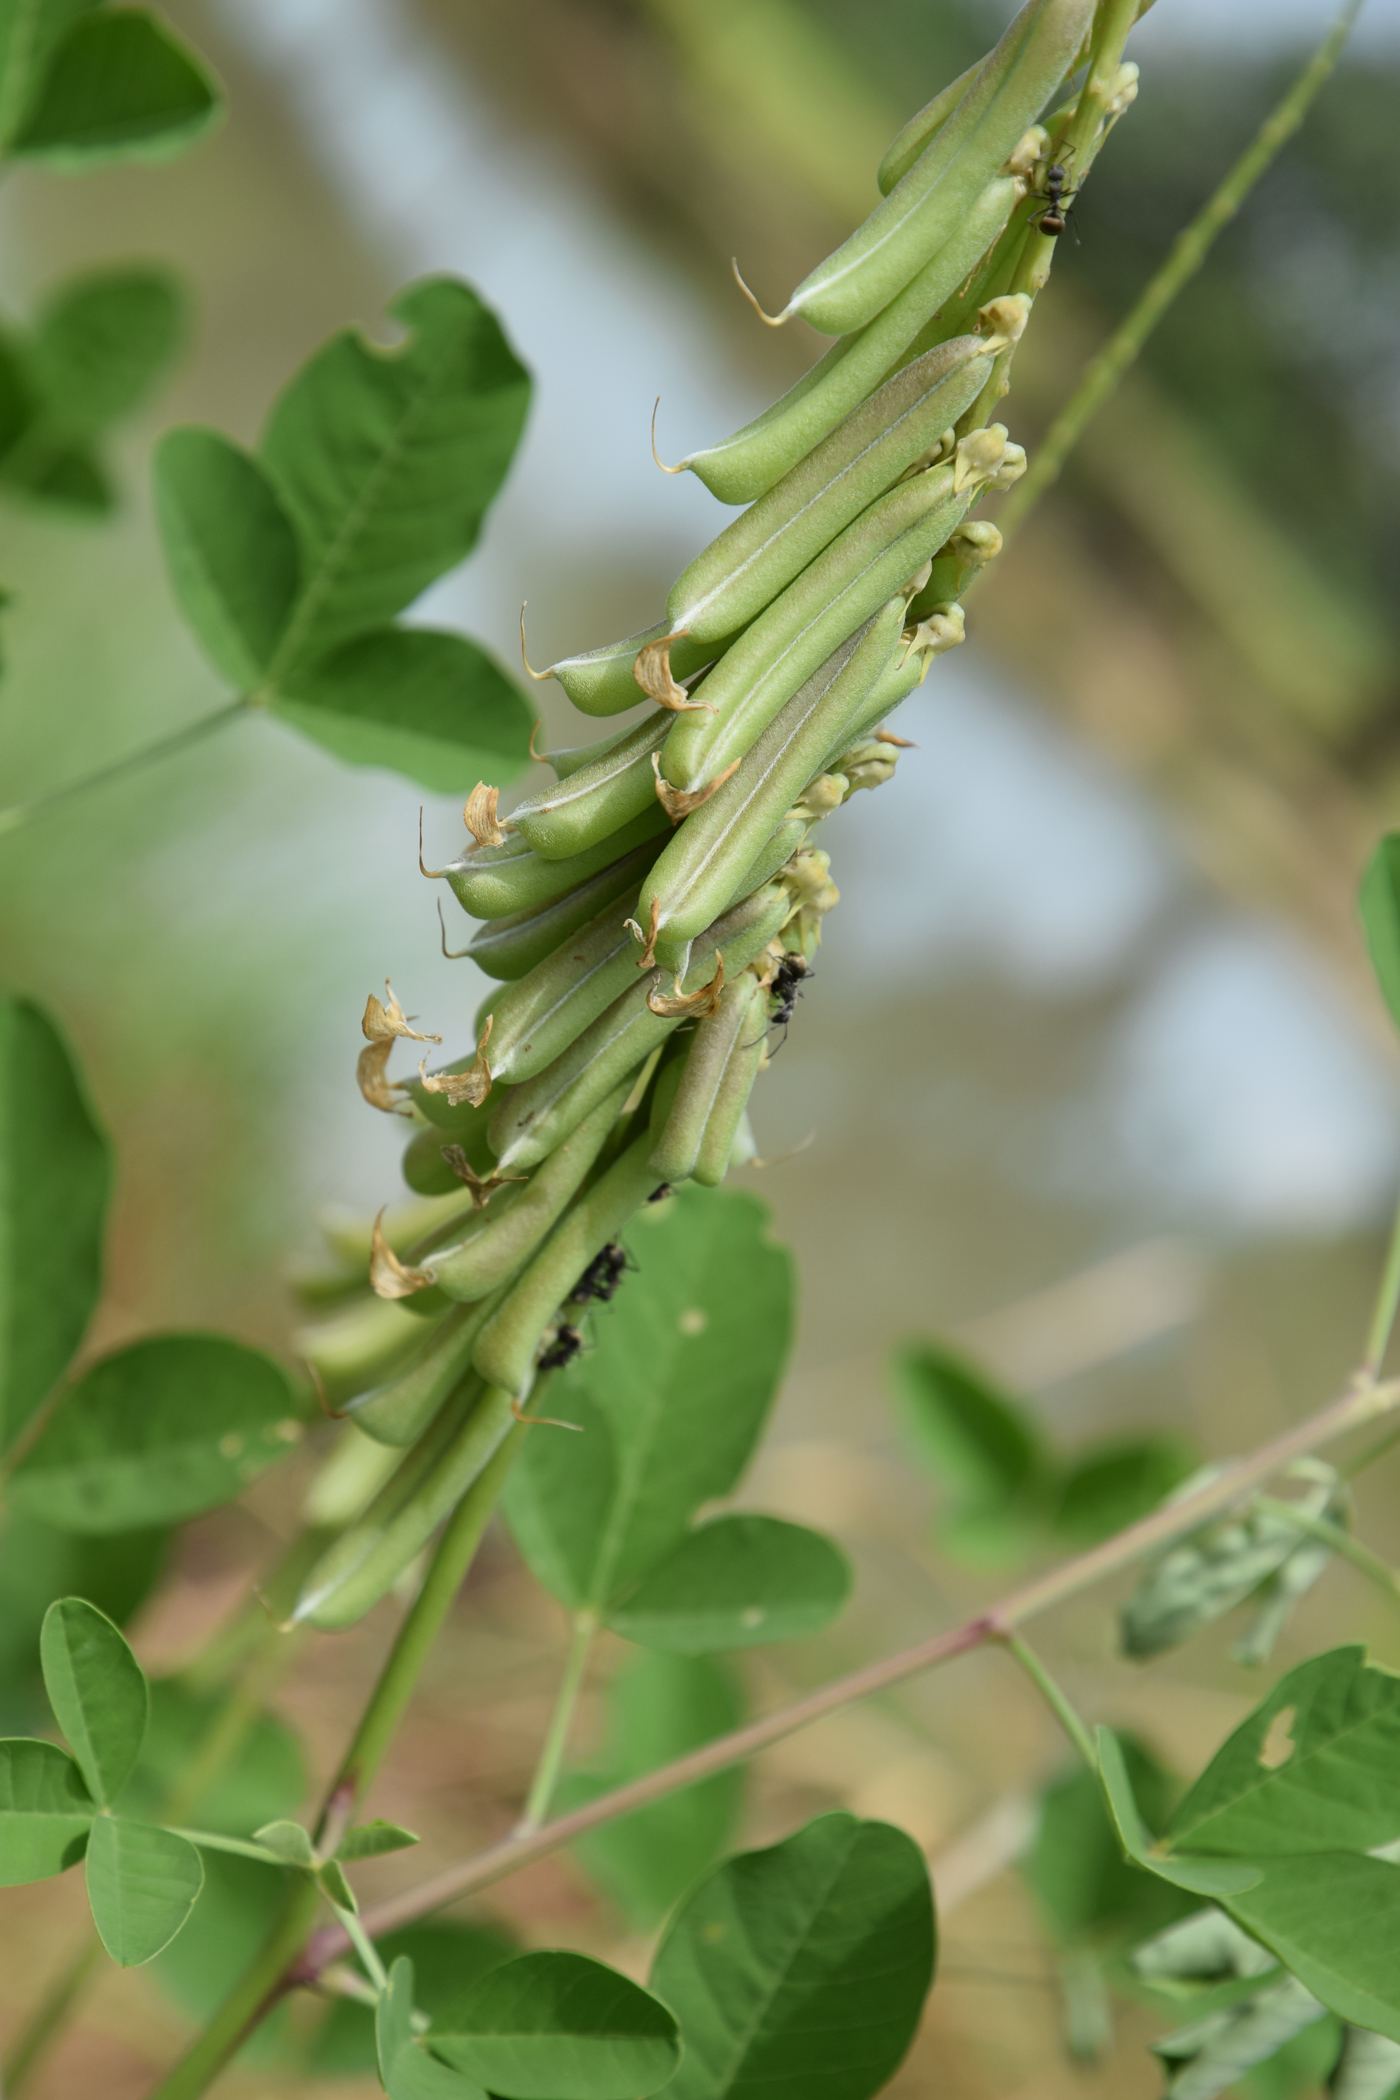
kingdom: Plantae
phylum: Tracheophyta
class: Magnoliopsida
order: Fabales
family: Fabaceae
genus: Crotalaria
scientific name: Crotalaria pallida
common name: Smooth rattlebox
